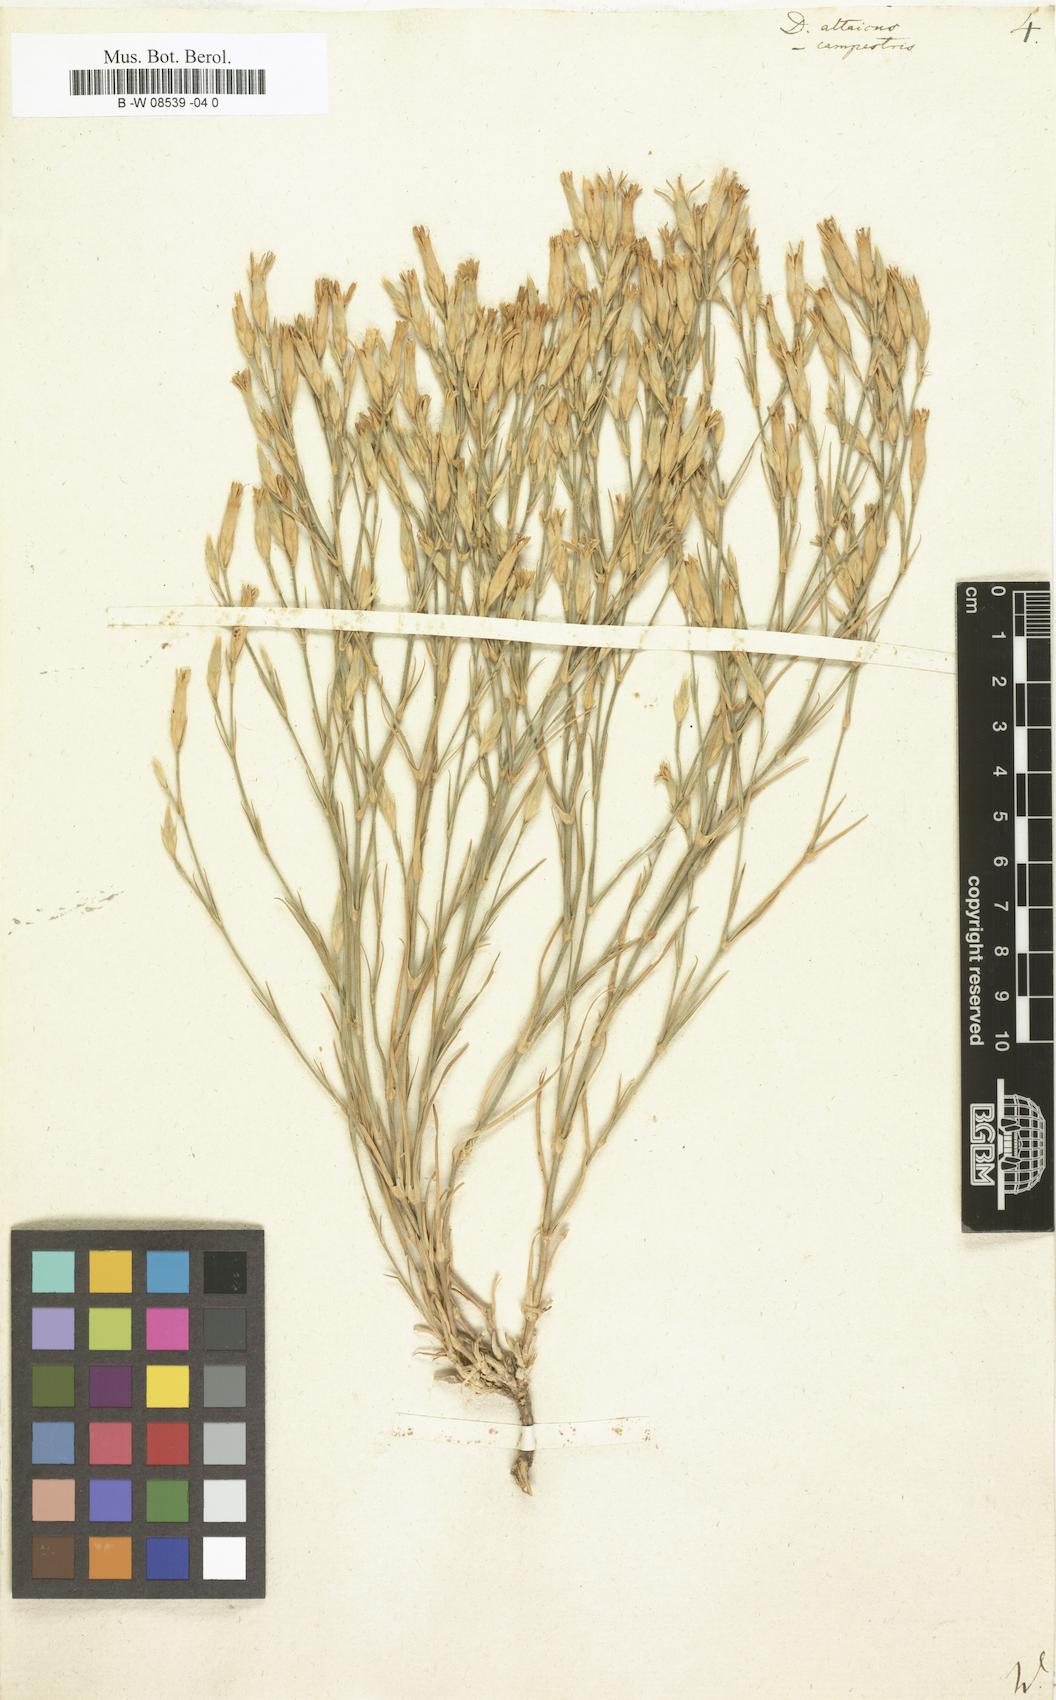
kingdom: Plantae
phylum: Tracheophyta
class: Magnoliopsida
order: Caryophyllales
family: Caryophyllaceae
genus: Dianthus
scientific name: Dianthus altaicus
